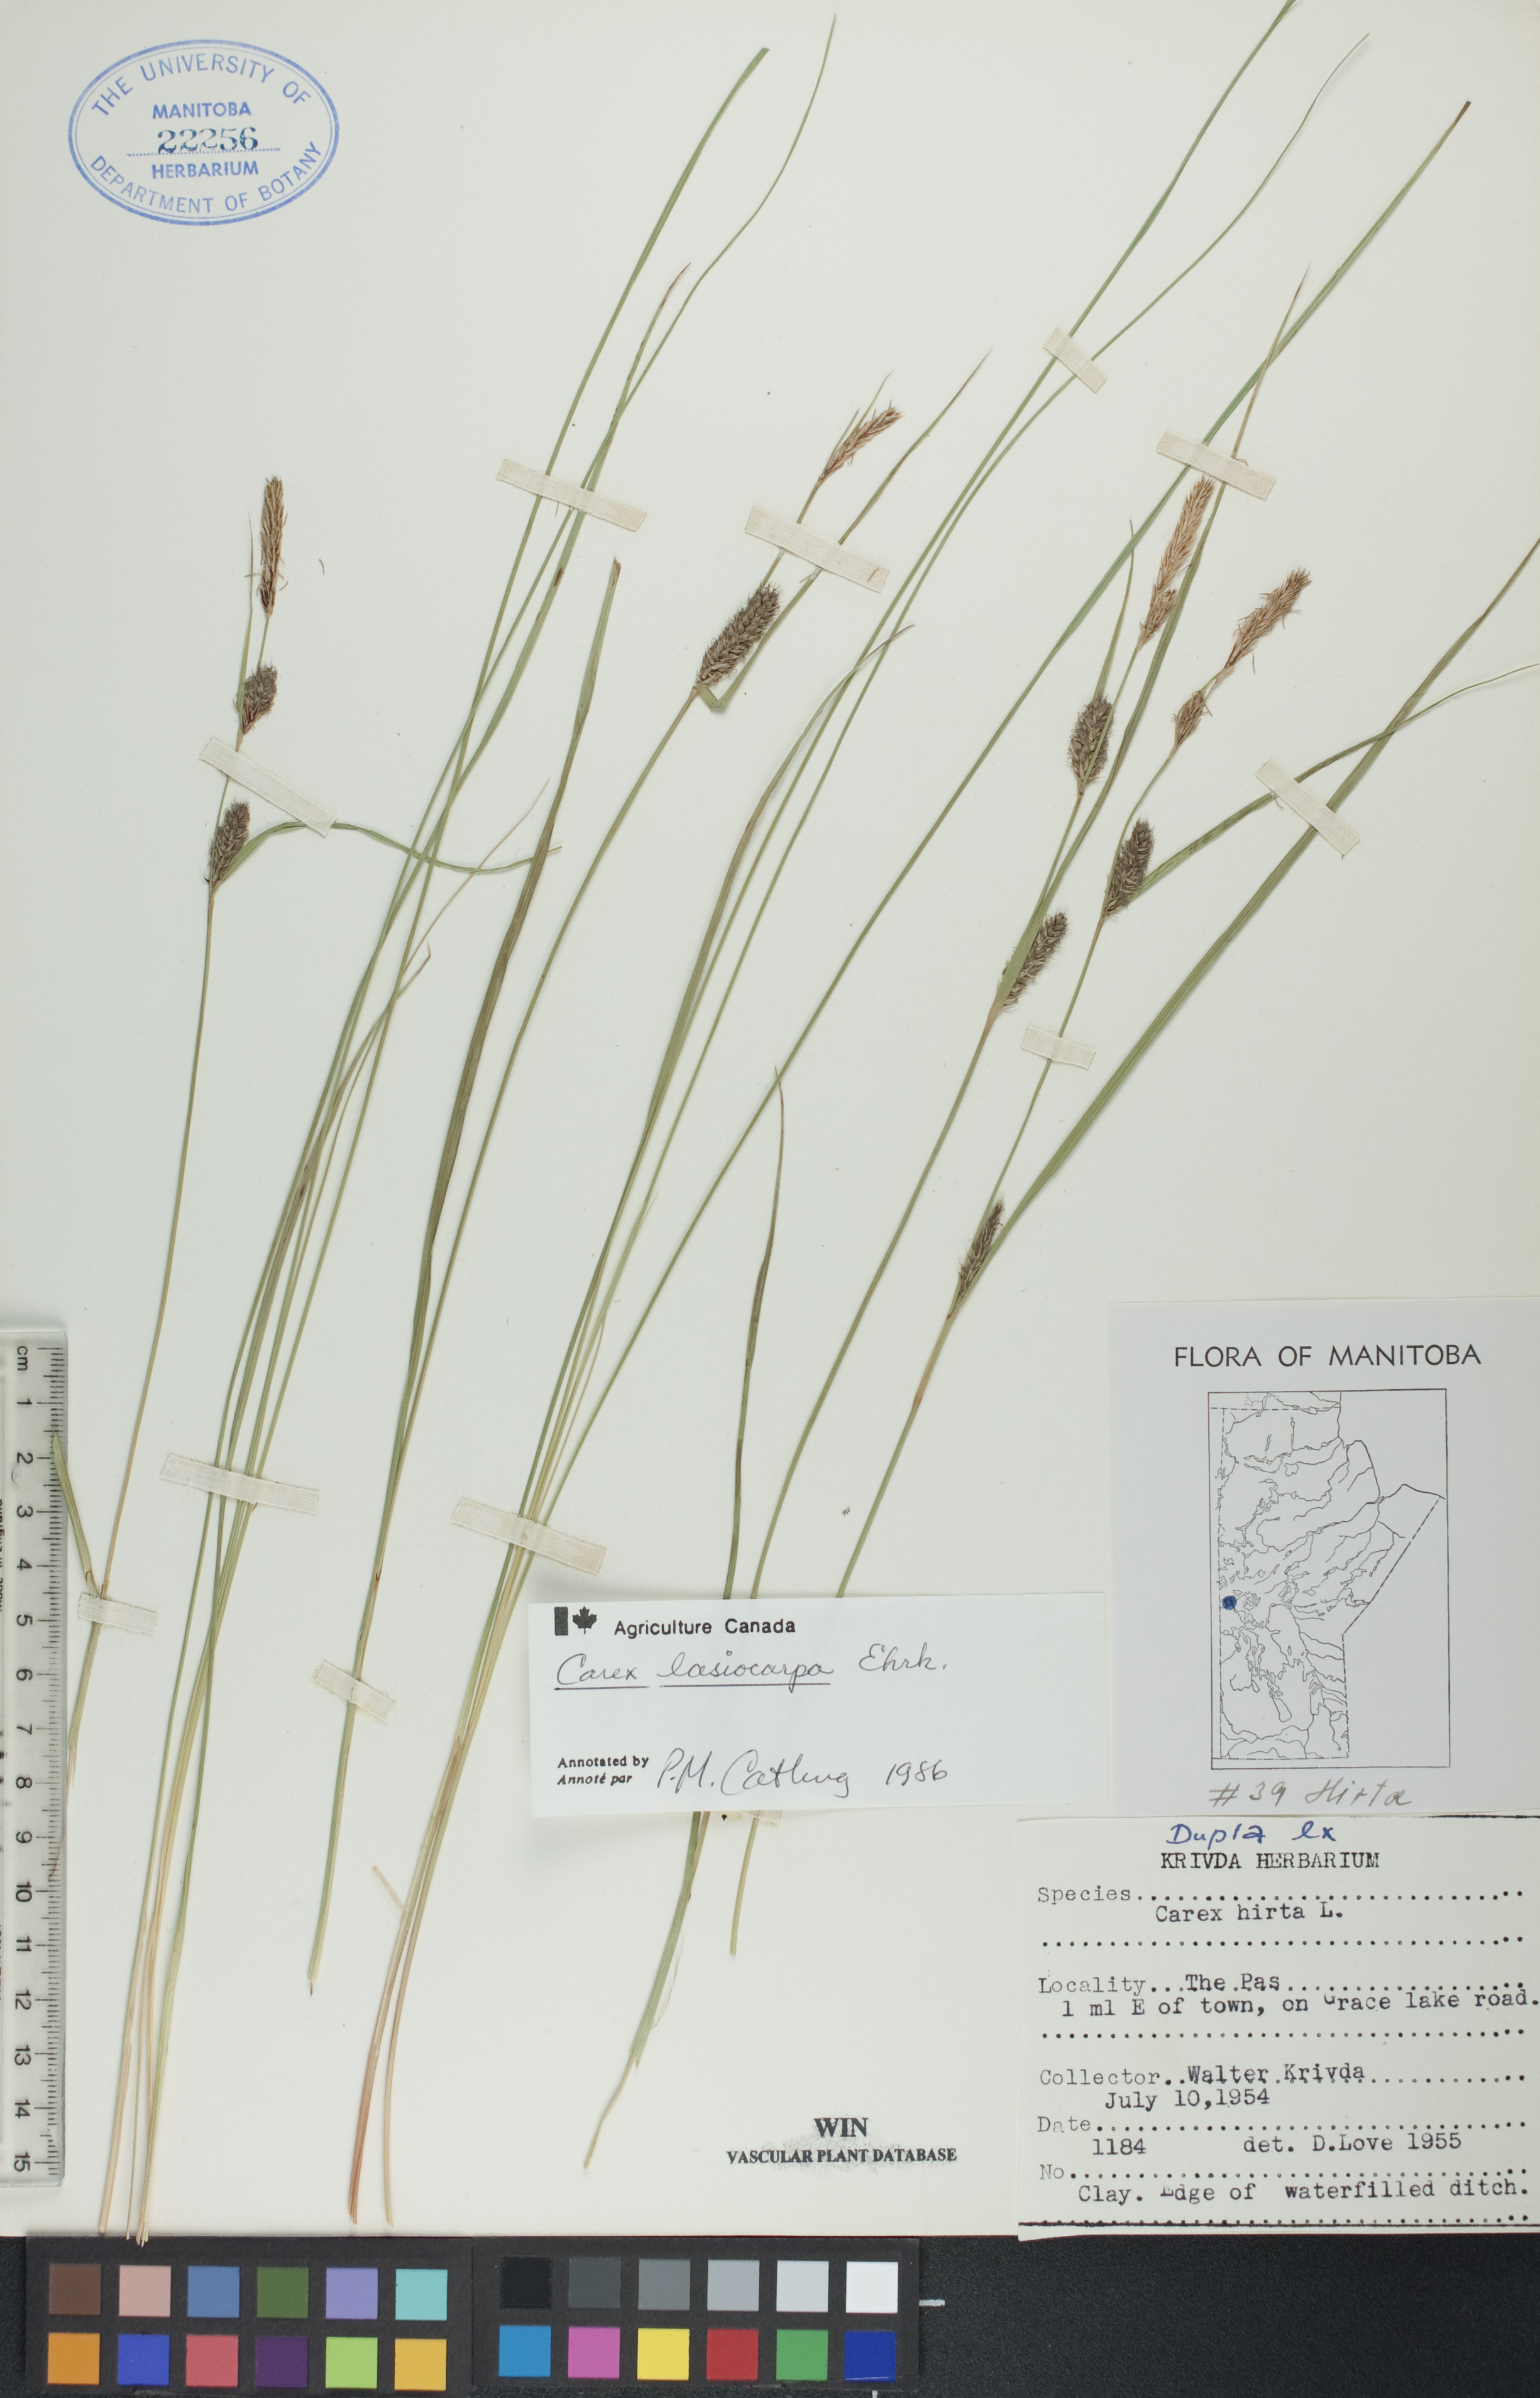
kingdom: Plantae
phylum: Tracheophyta
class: Liliopsida
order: Poales
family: Cyperaceae
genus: Carex
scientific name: Carex lasiocarpa
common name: Slender sedge
